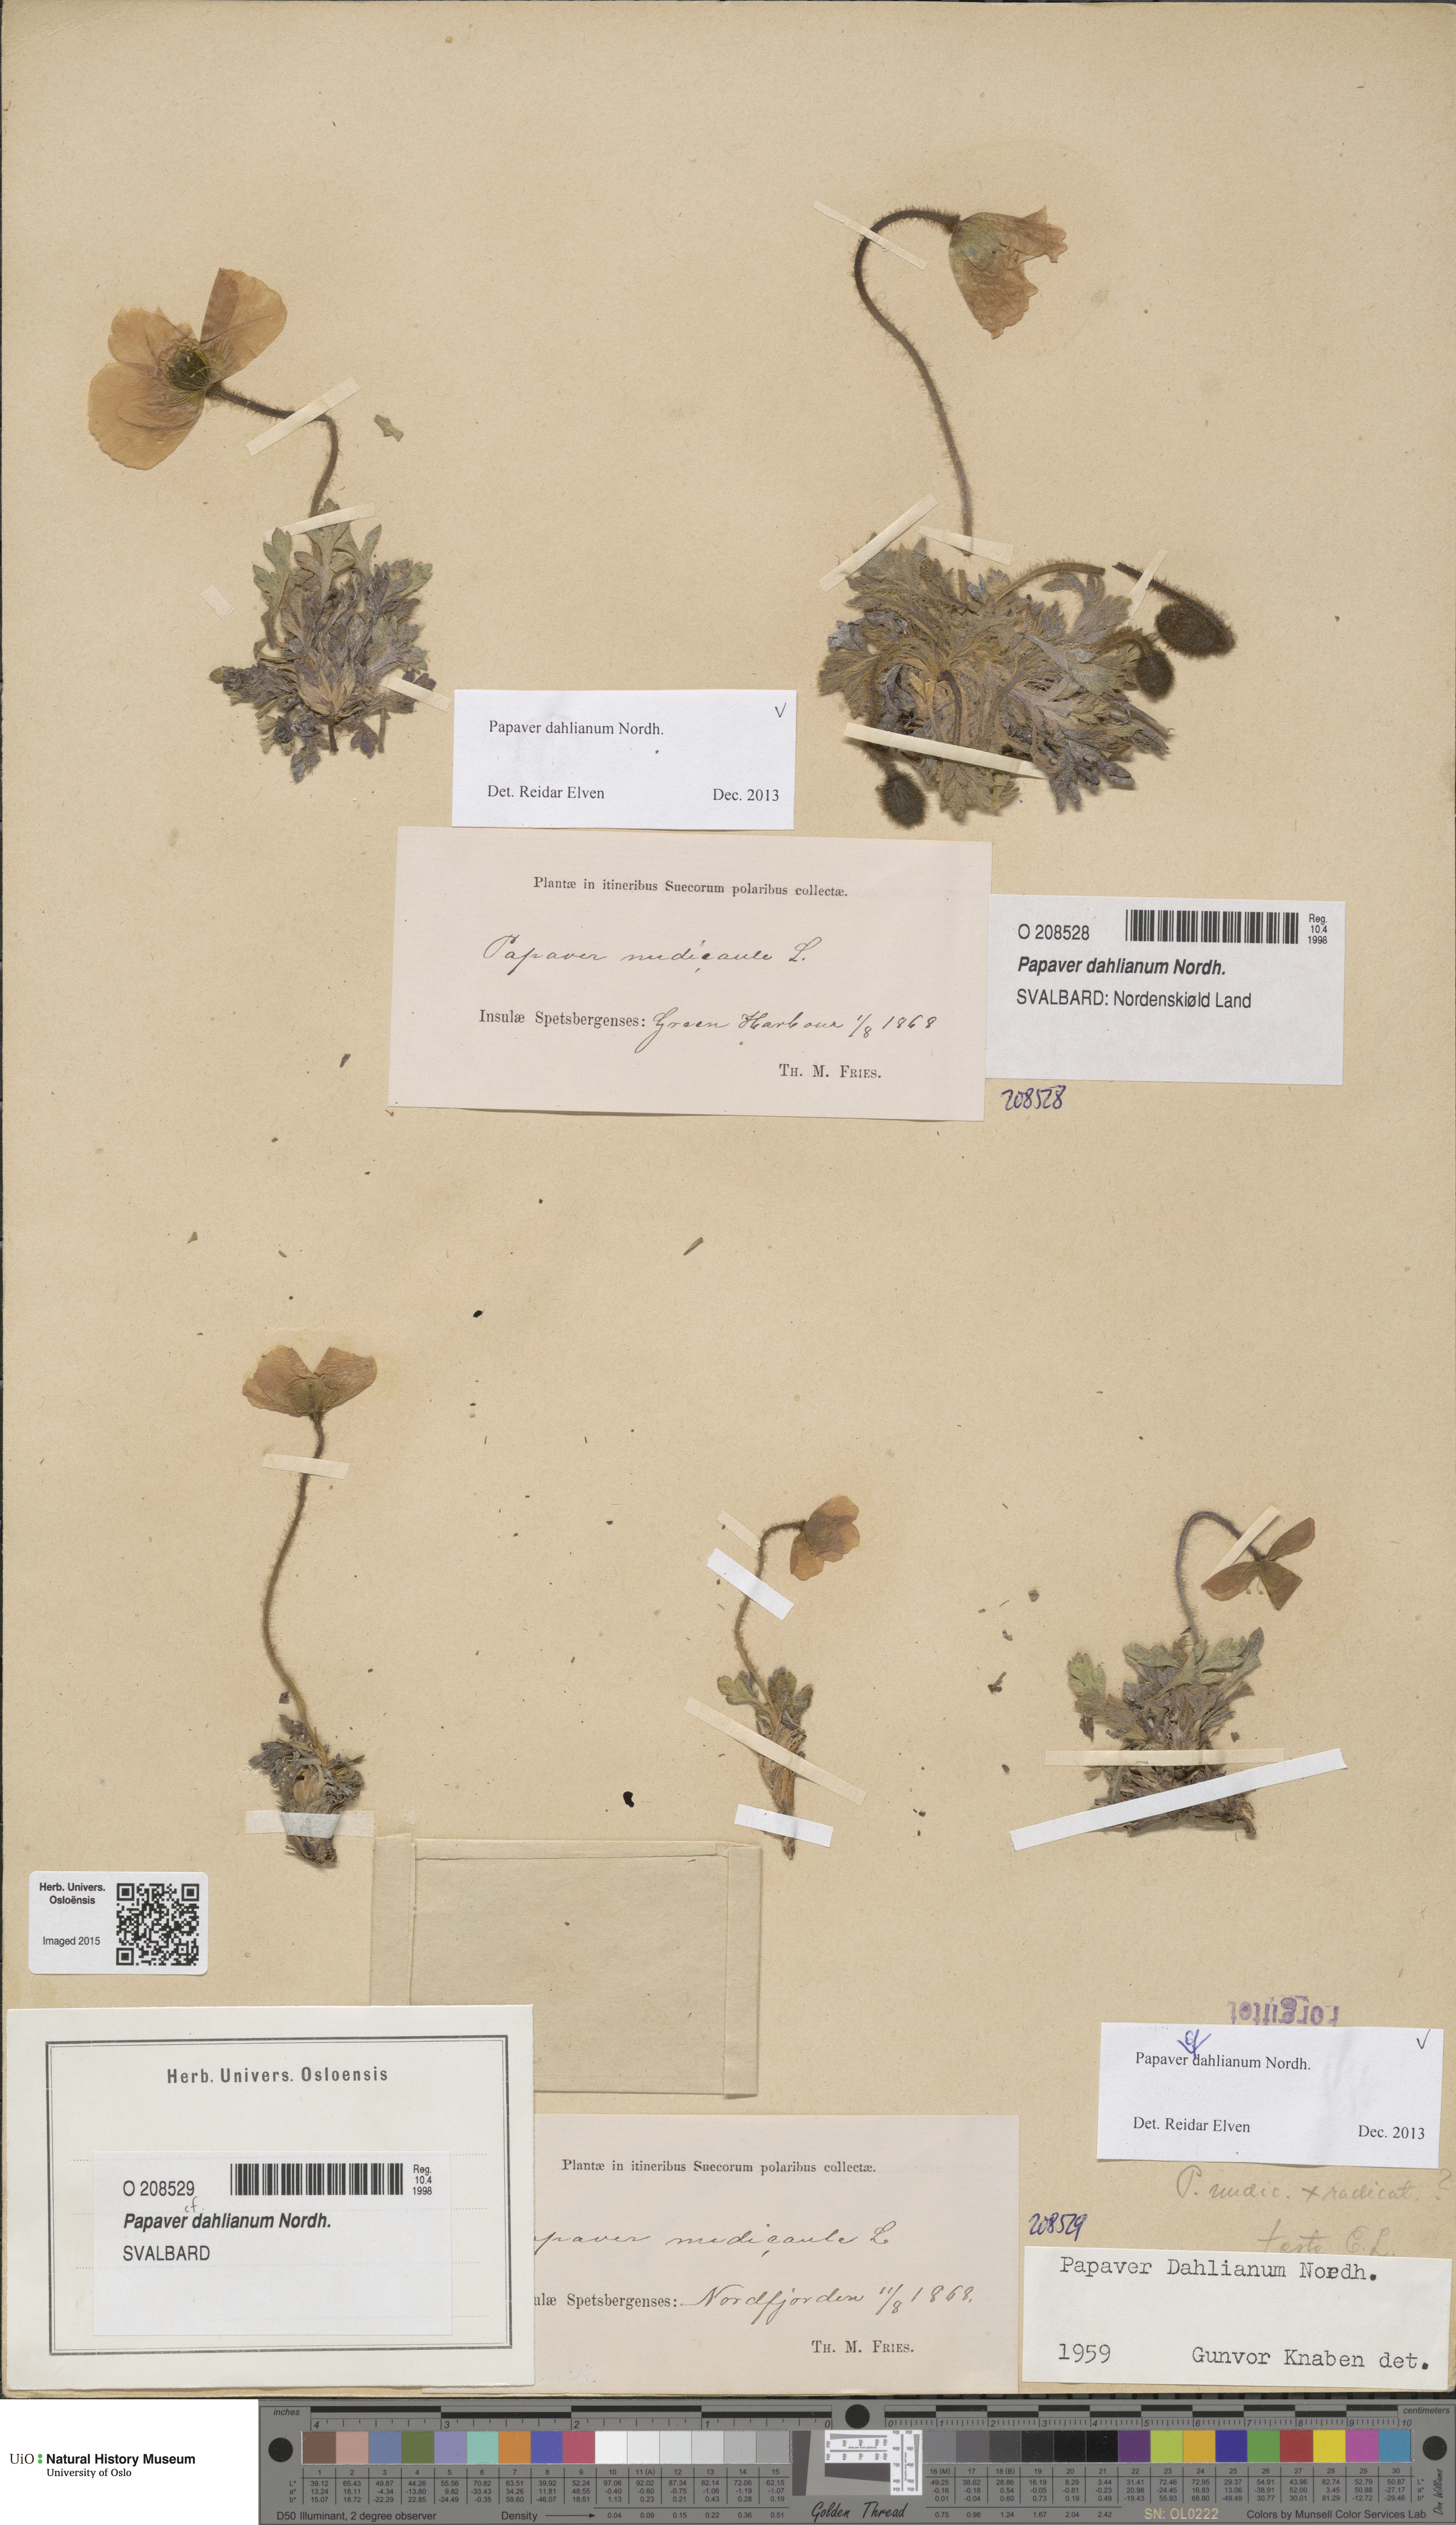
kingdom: Plantae
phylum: Tracheophyta
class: Magnoliopsida
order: Ranunculales
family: Papaveraceae
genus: Papaver
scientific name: Papaver radicatum
